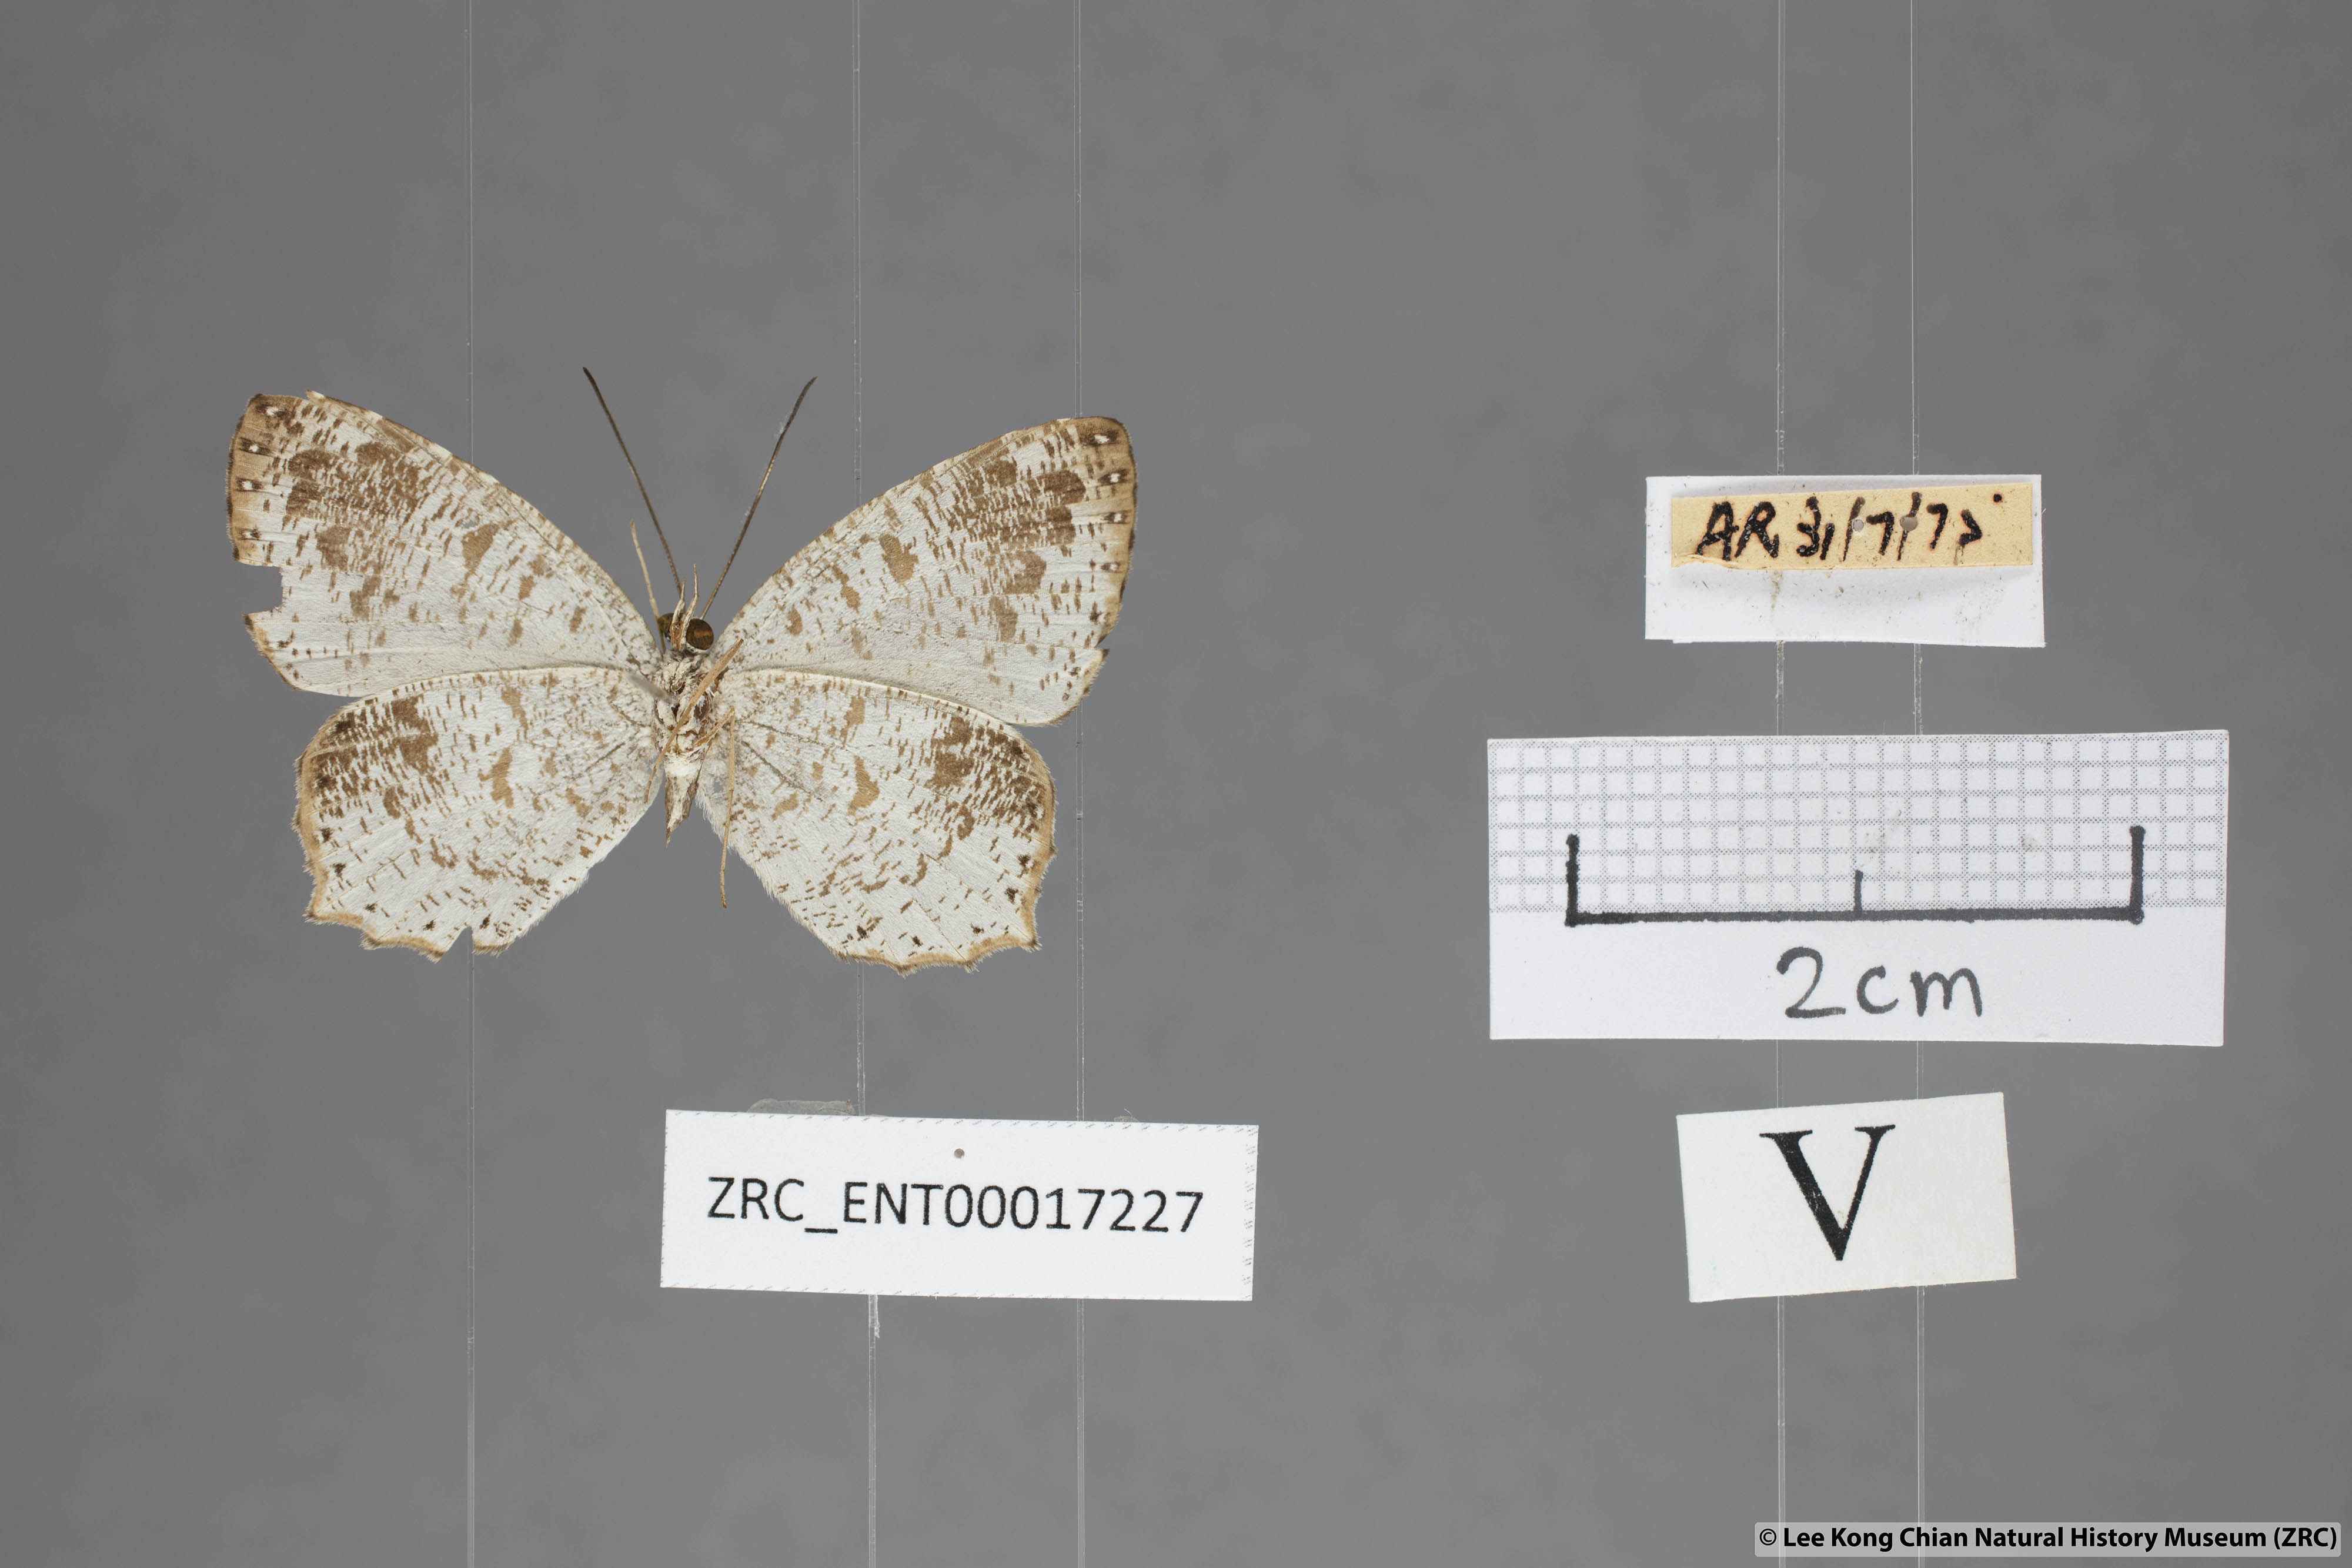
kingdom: Animalia
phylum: Arthropoda
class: Insecta
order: Lepidoptera
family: Lycaenidae
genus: Allotinus
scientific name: Allotinus fabius
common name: Angled darkie
